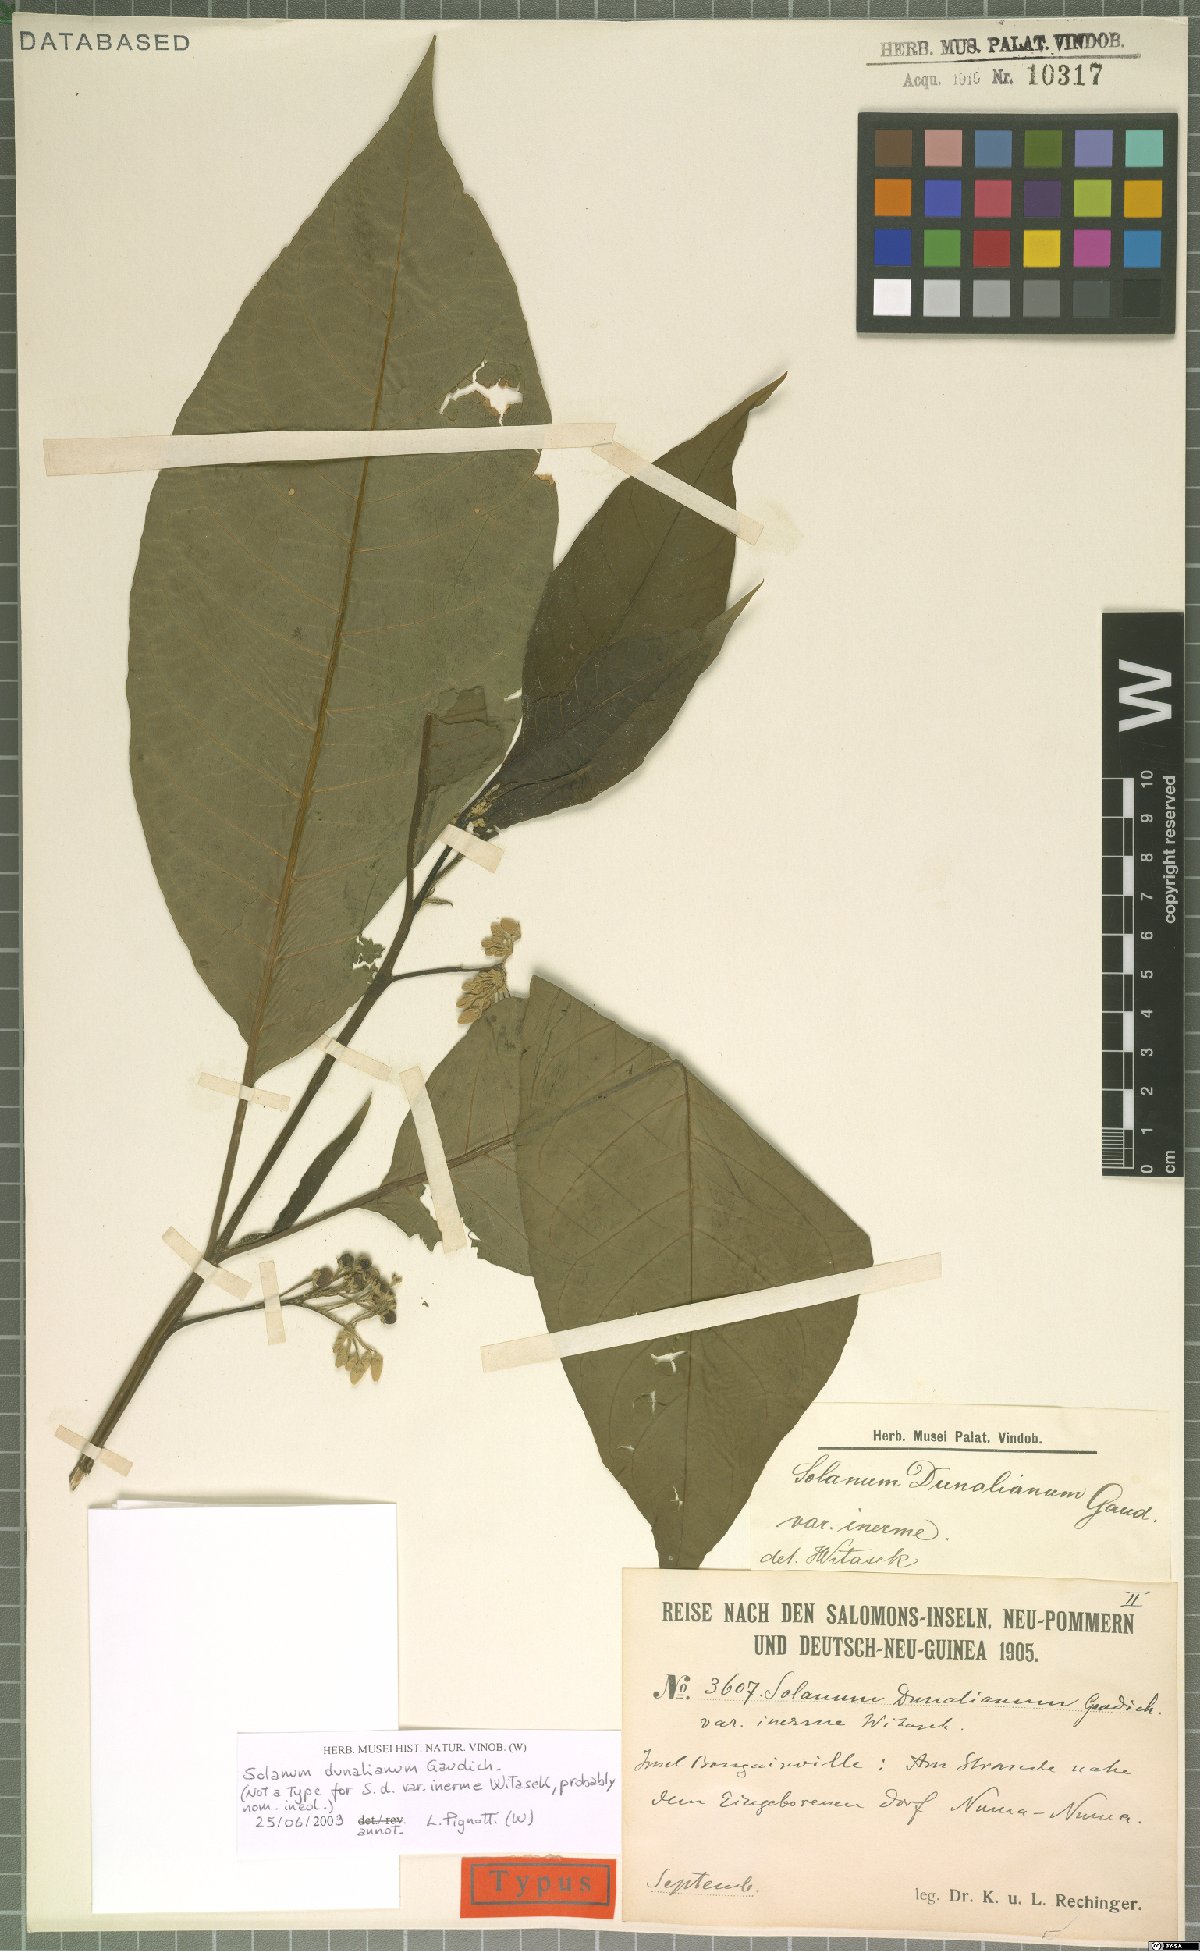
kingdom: Plantae
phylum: Tracheophyta
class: Magnoliopsida
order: Solanales
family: Solanaceae
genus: Solanum
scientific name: Solanum dunalianum
